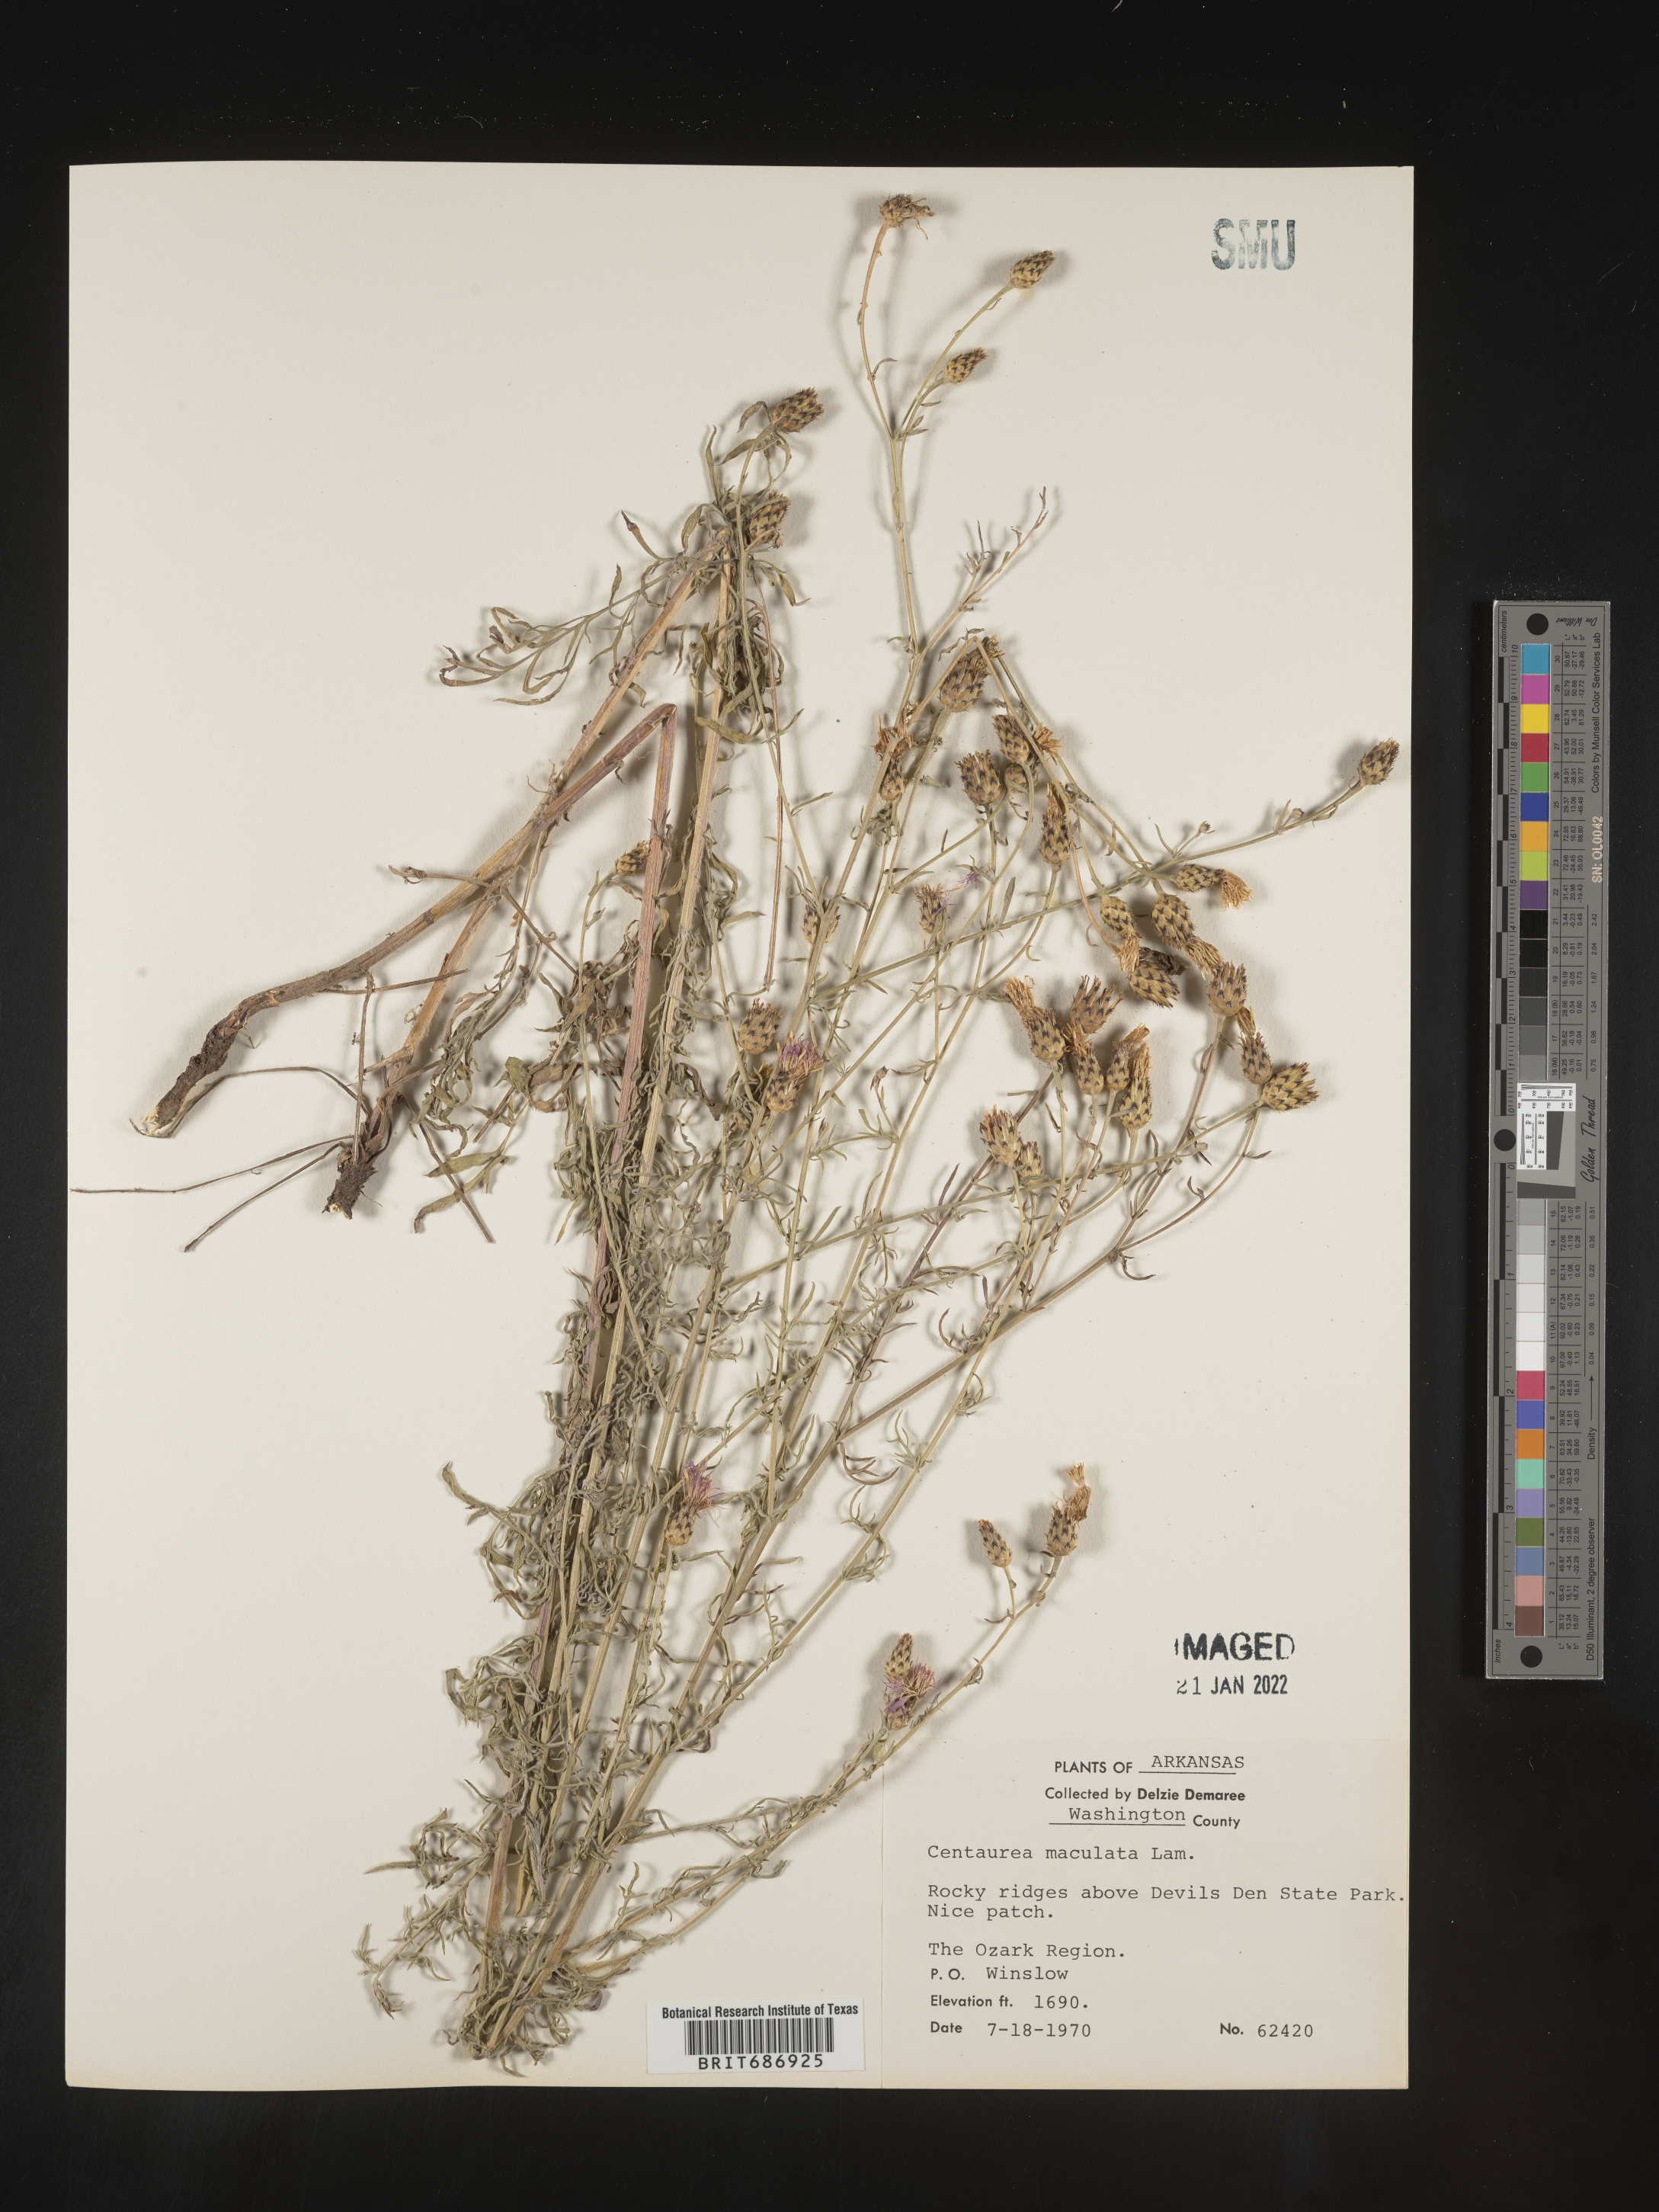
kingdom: Plantae
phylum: Tracheophyta
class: Magnoliopsida
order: Asterales
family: Asteraceae
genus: Centaurea
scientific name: Centaurea stoebe
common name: Spotted knapweed
